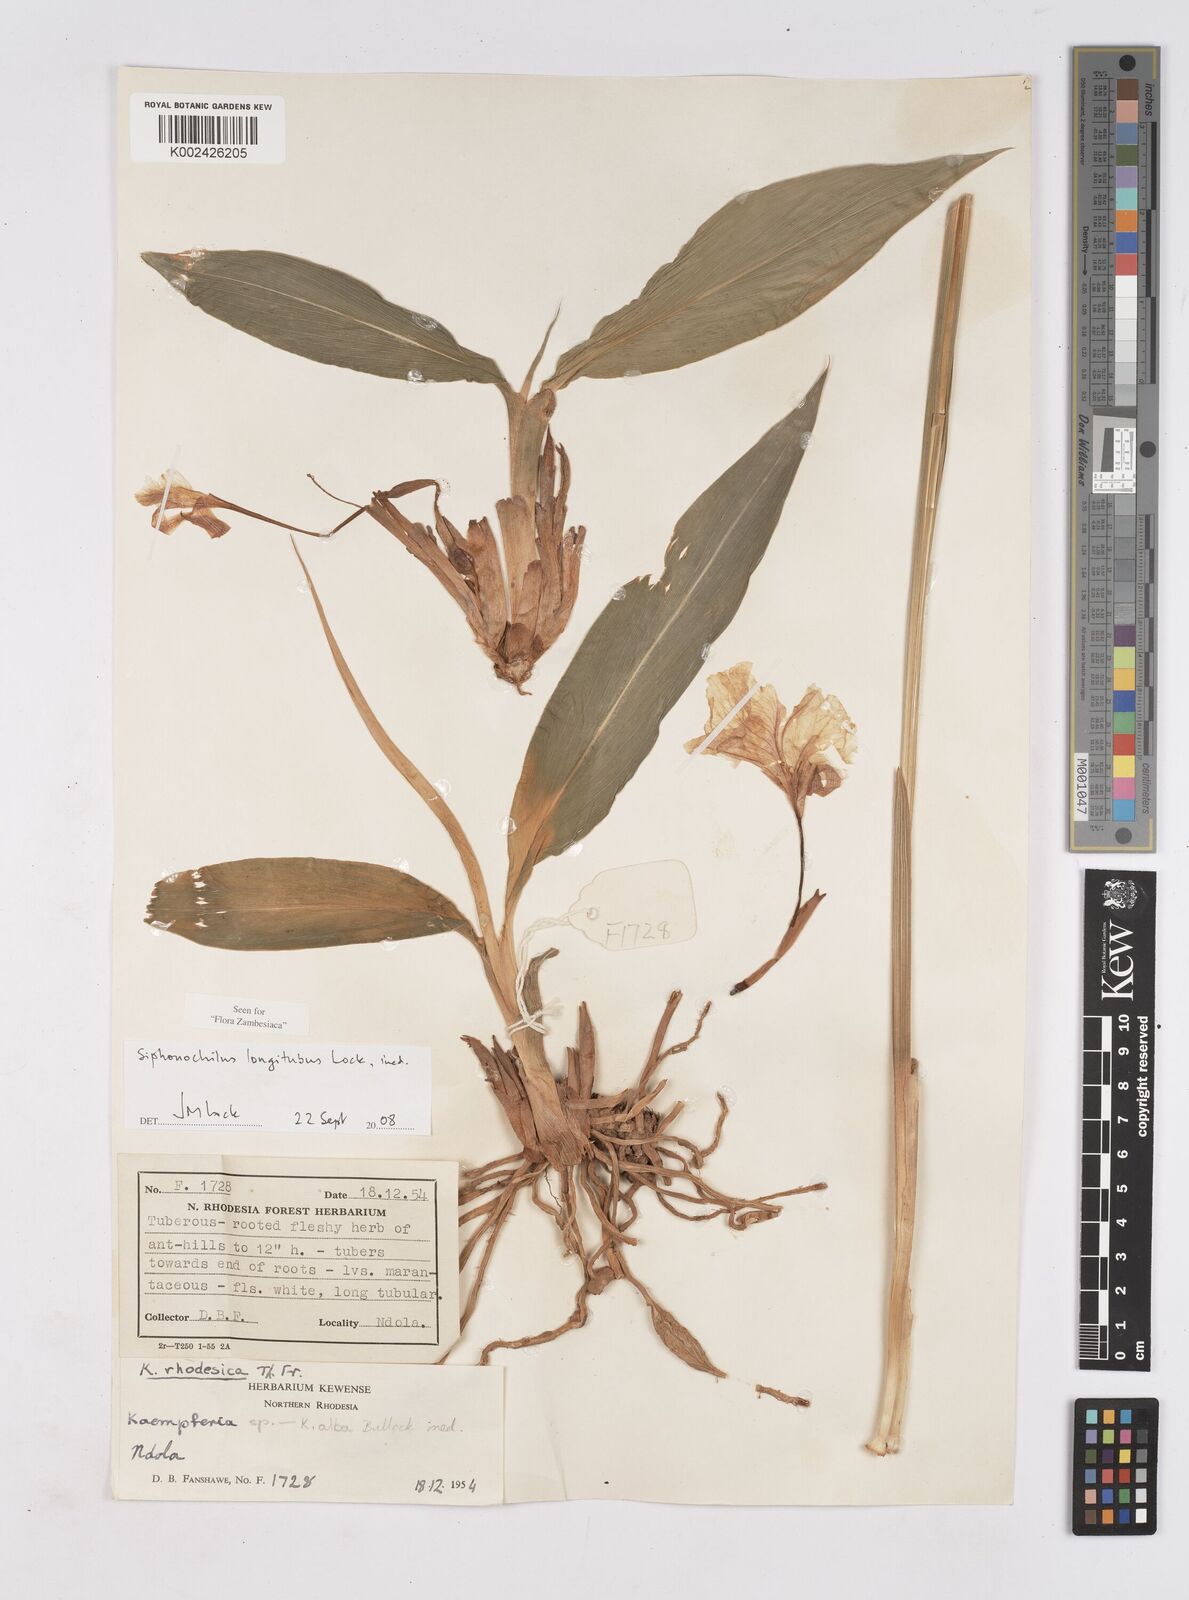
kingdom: Plantae
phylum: Tracheophyta
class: Liliopsida
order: Zingiberales
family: Zingiberaceae
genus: Siphonochilus
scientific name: Siphonochilus longitubus
